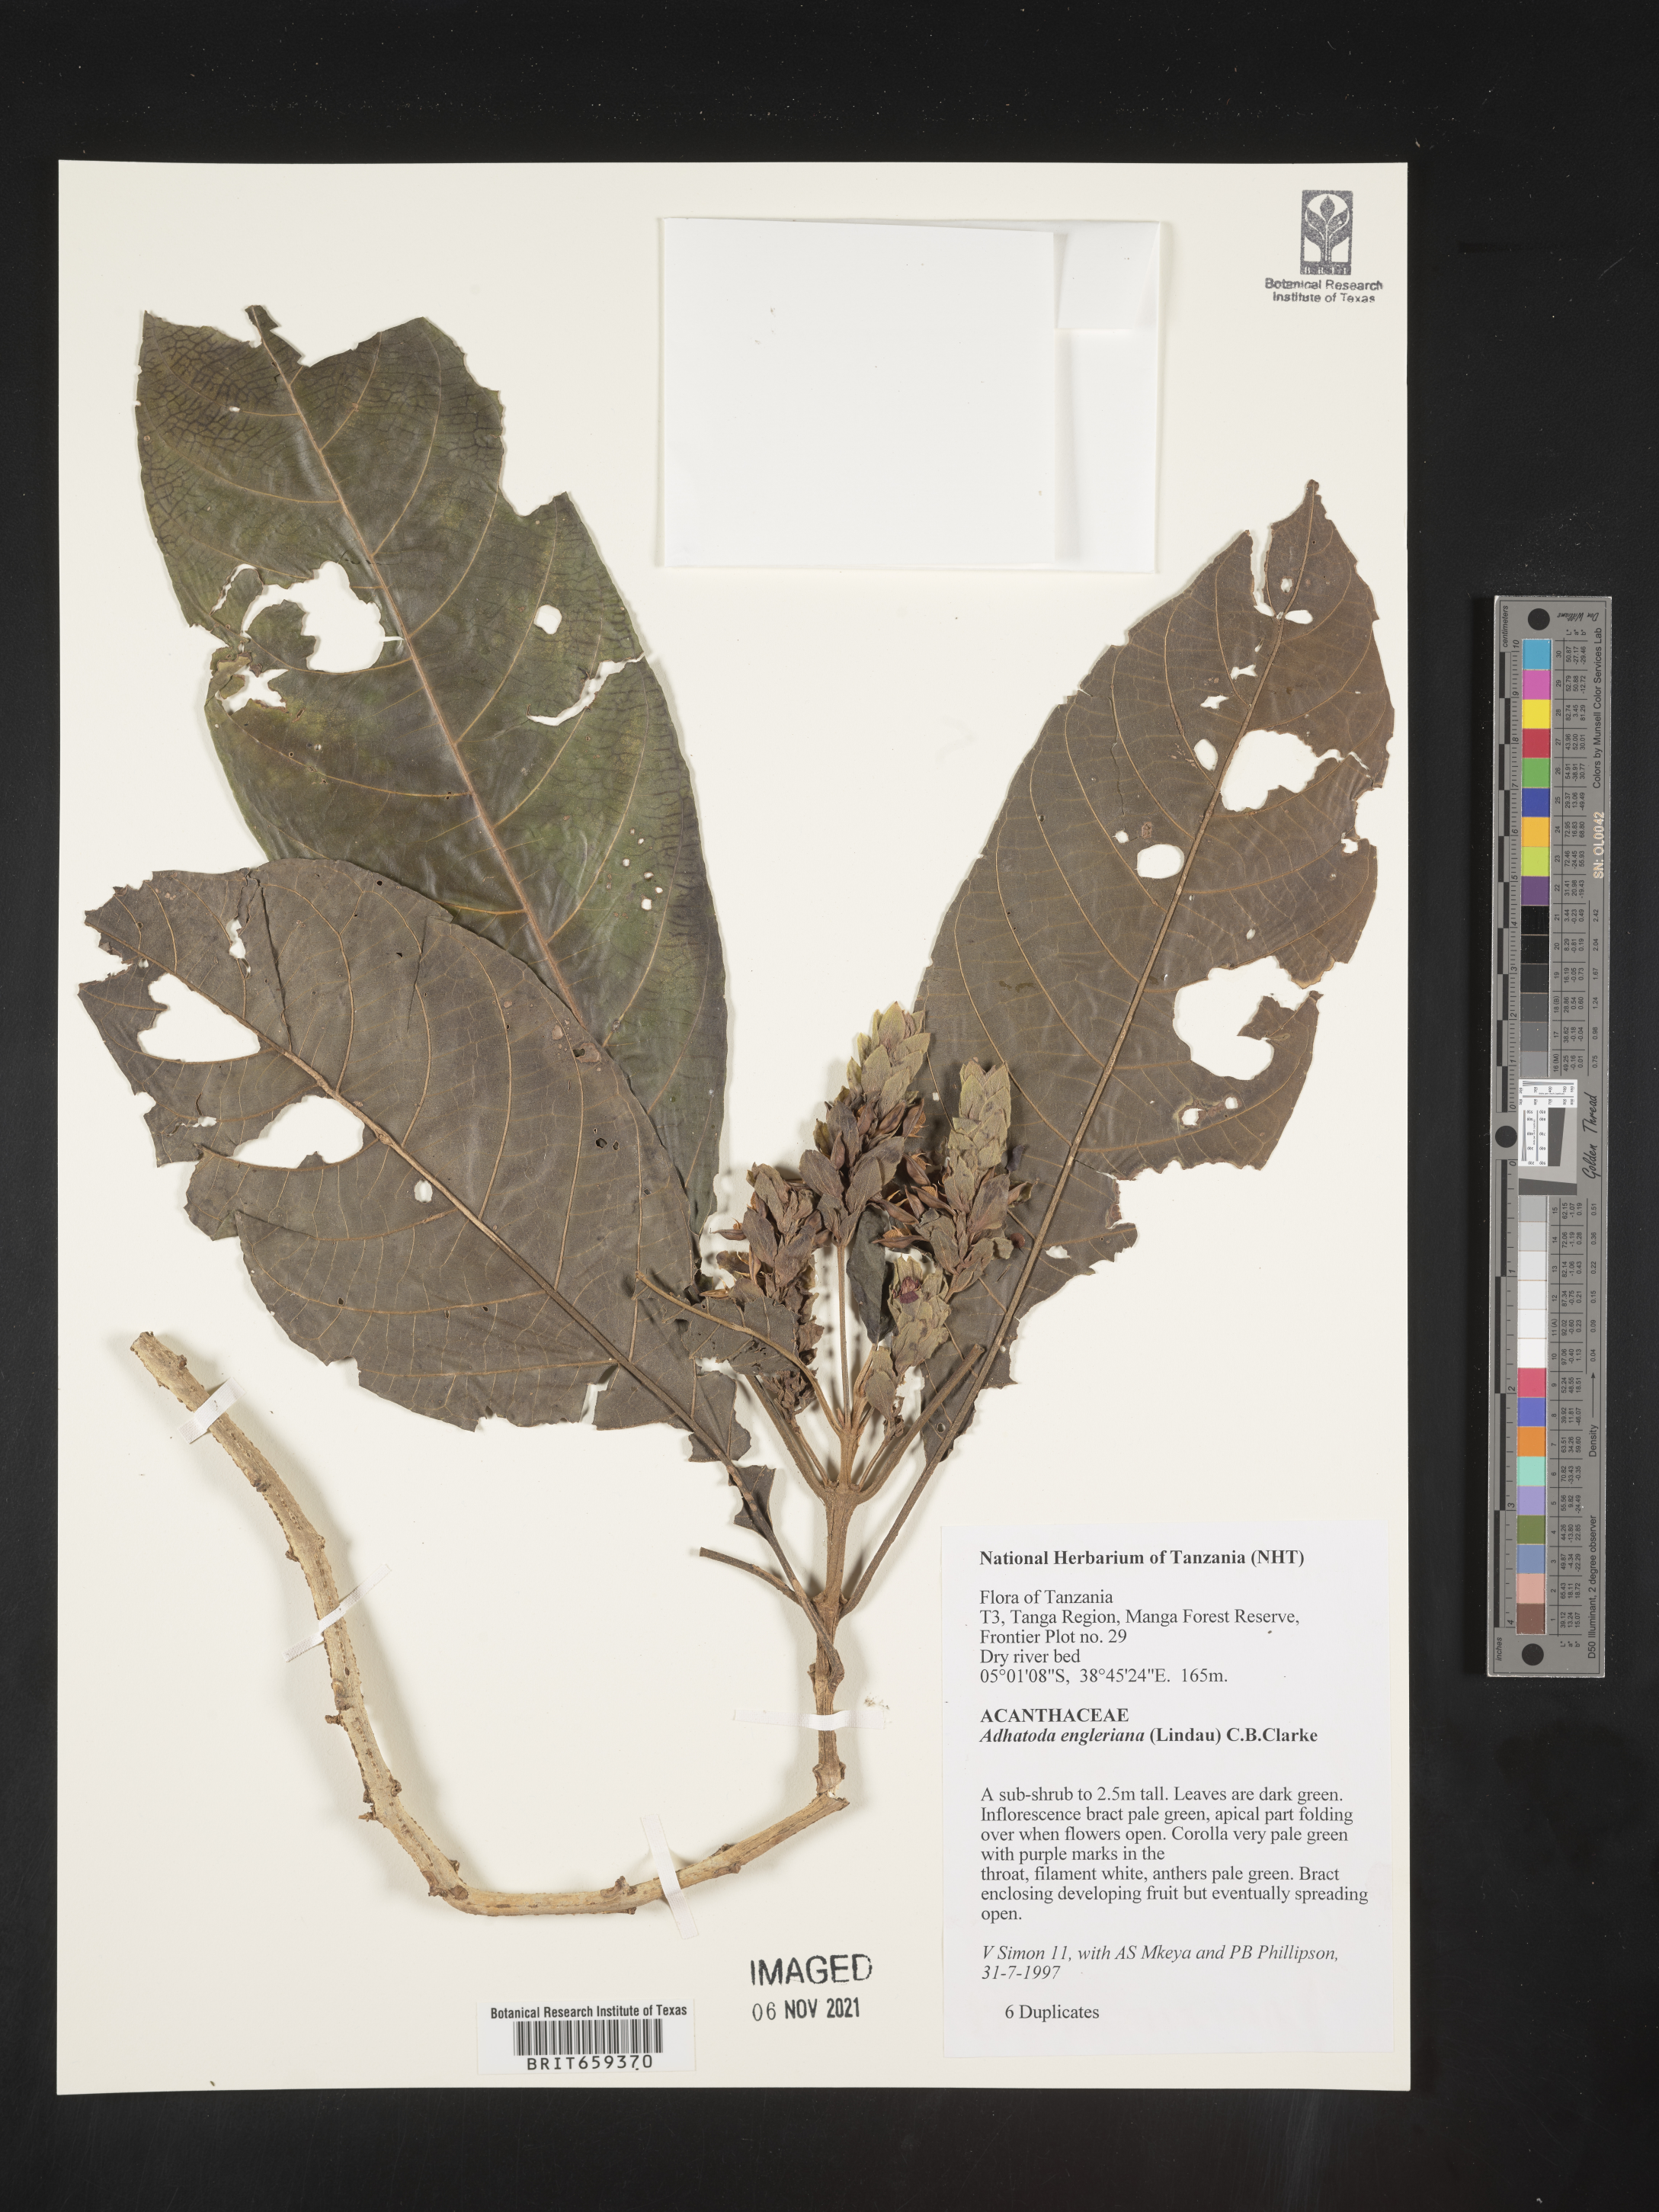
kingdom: Plantae
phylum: Tracheophyta
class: Magnoliopsida
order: Lamiales
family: Acanthaceae
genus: Justicia
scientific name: Justicia engleriana
